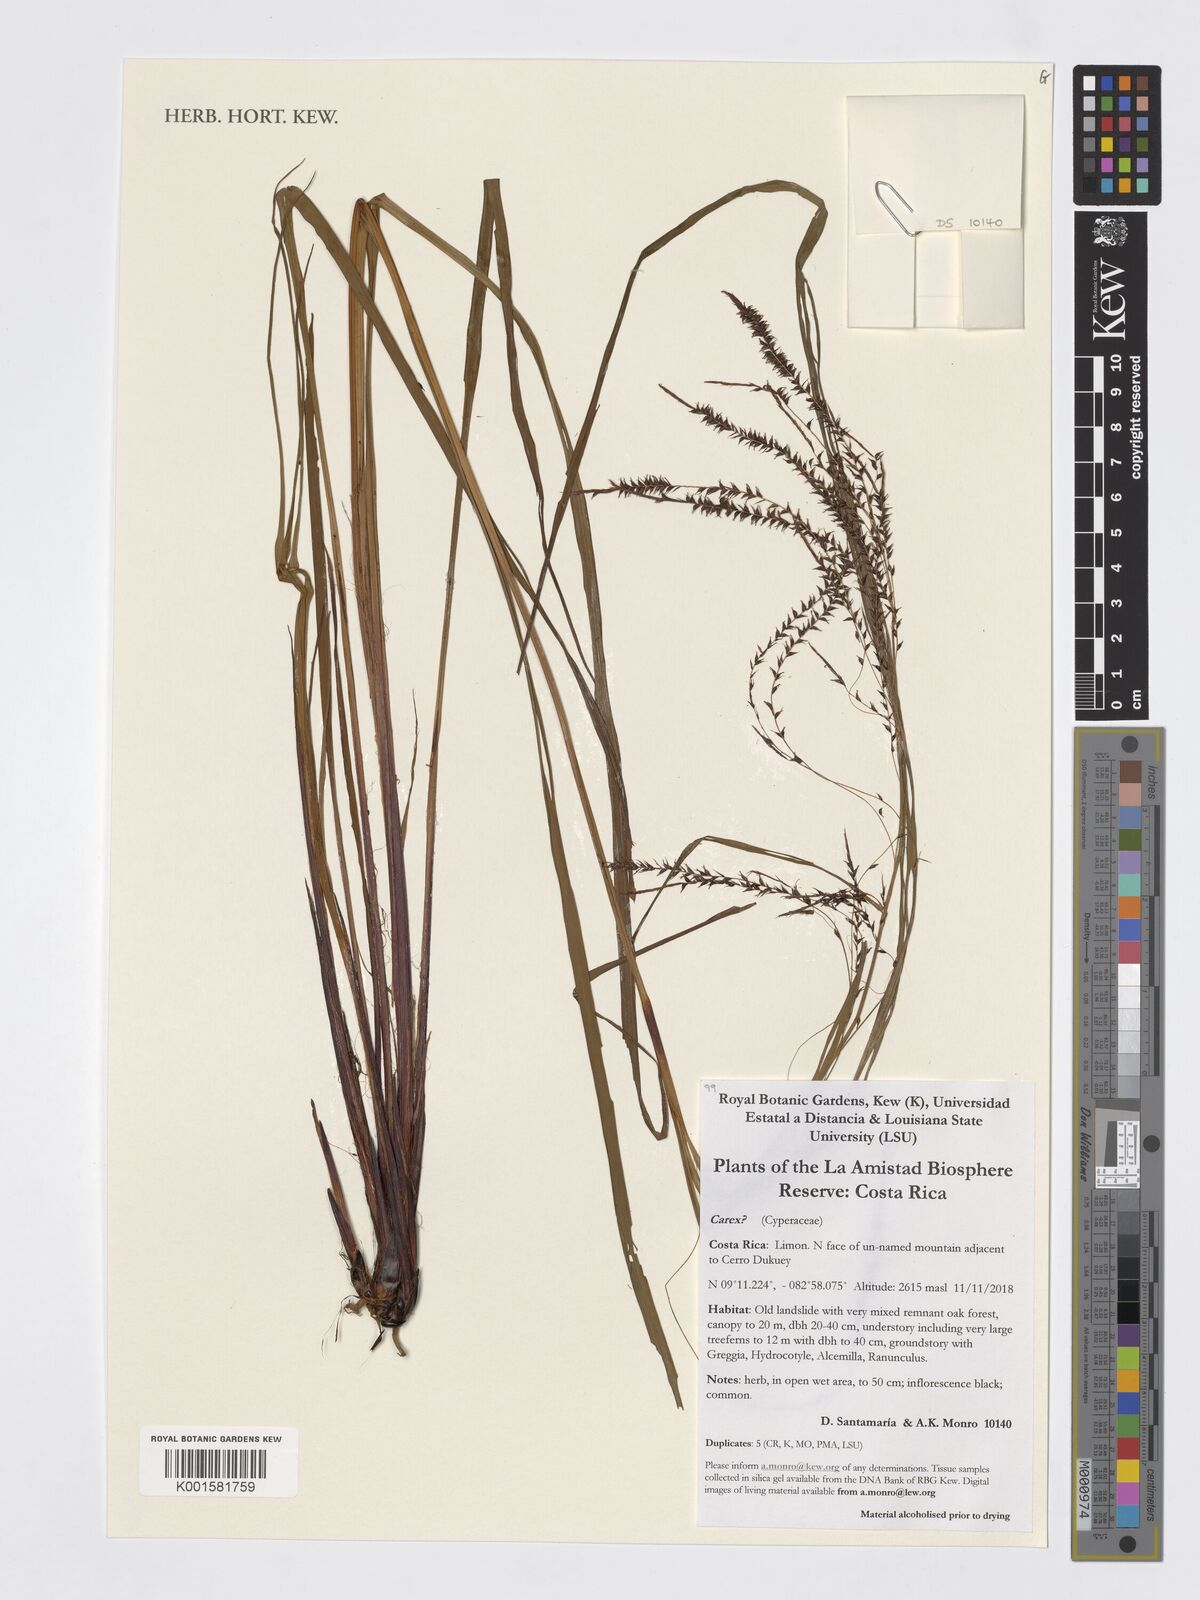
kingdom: Plantae
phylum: Tracheophyta
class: Liliopsida
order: Poales
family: Cyperaceae
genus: Carex
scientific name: Carex
